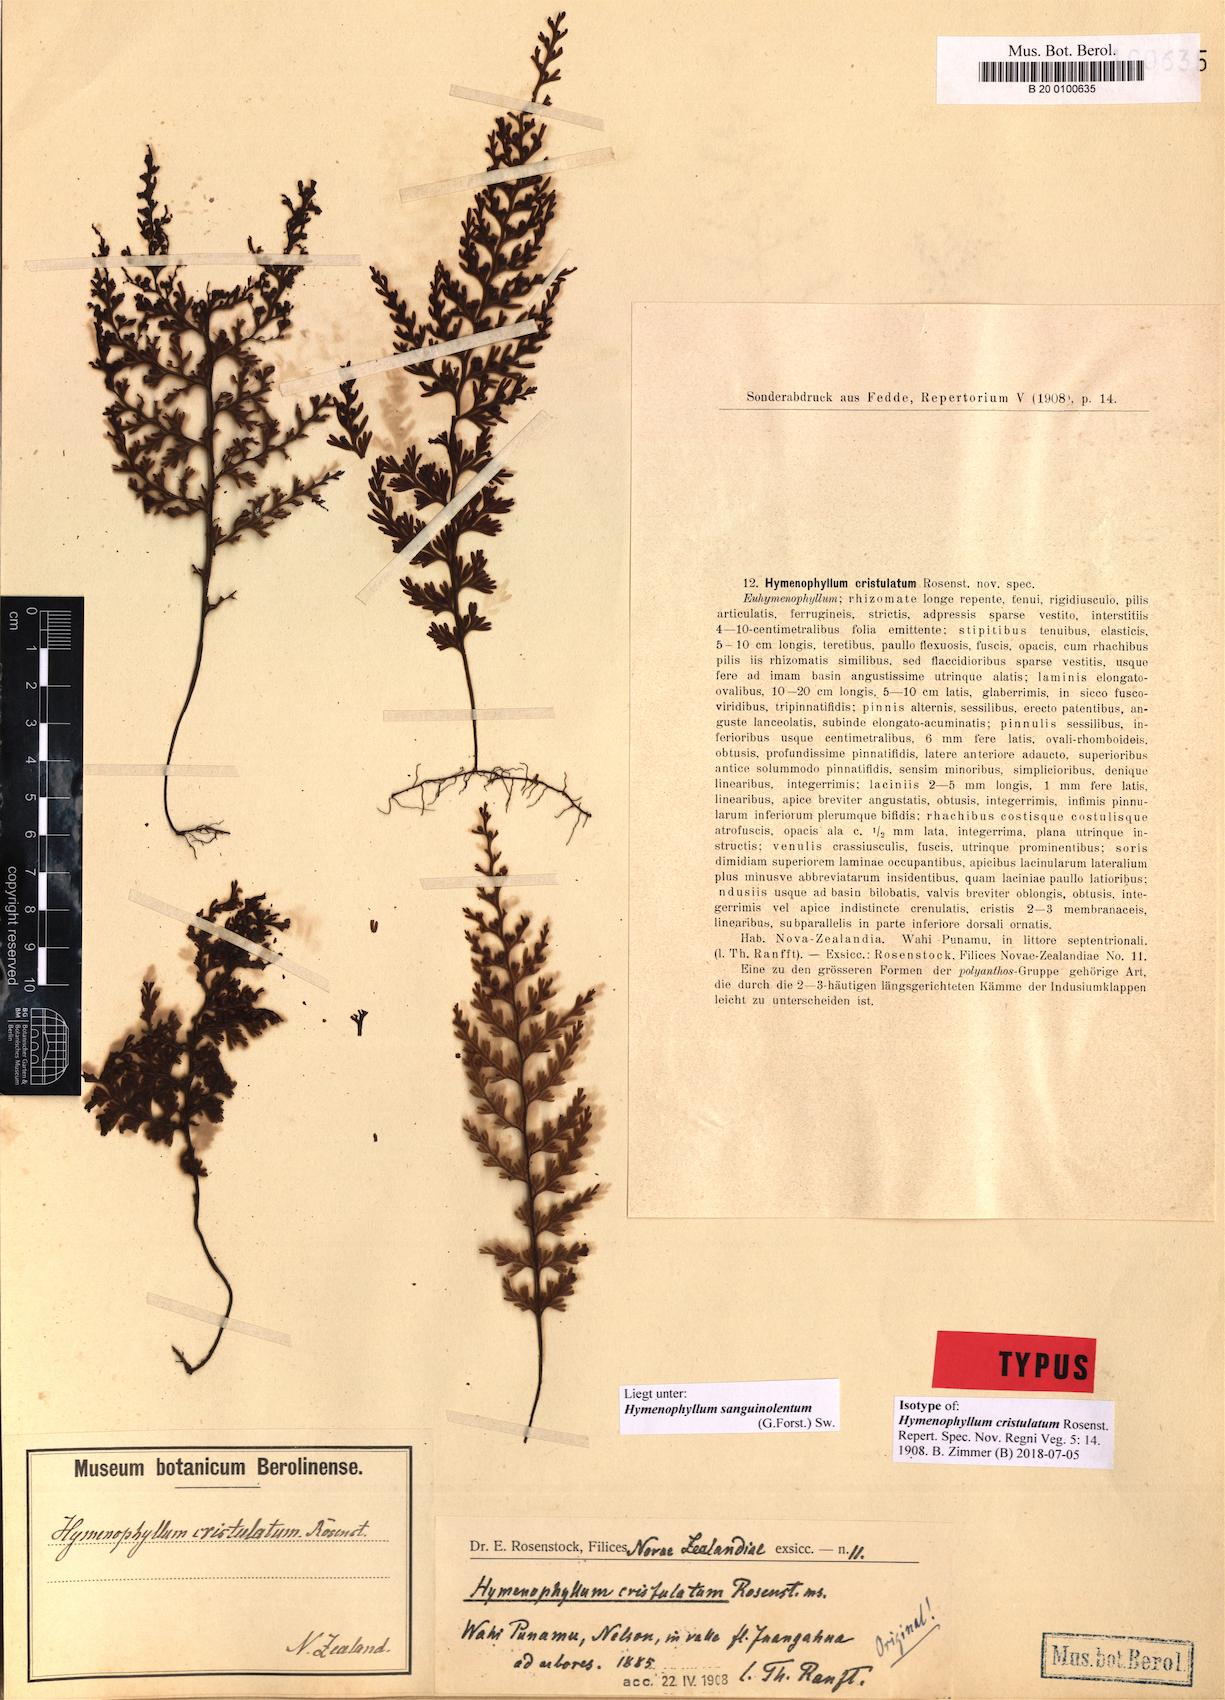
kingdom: Plantae
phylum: Tracheophyta
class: Polypodiopsida
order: Hymenophyllales
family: Hymenophyllaceae
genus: Hymenophyllum
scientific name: Hymenophyllum sanguinolentum
